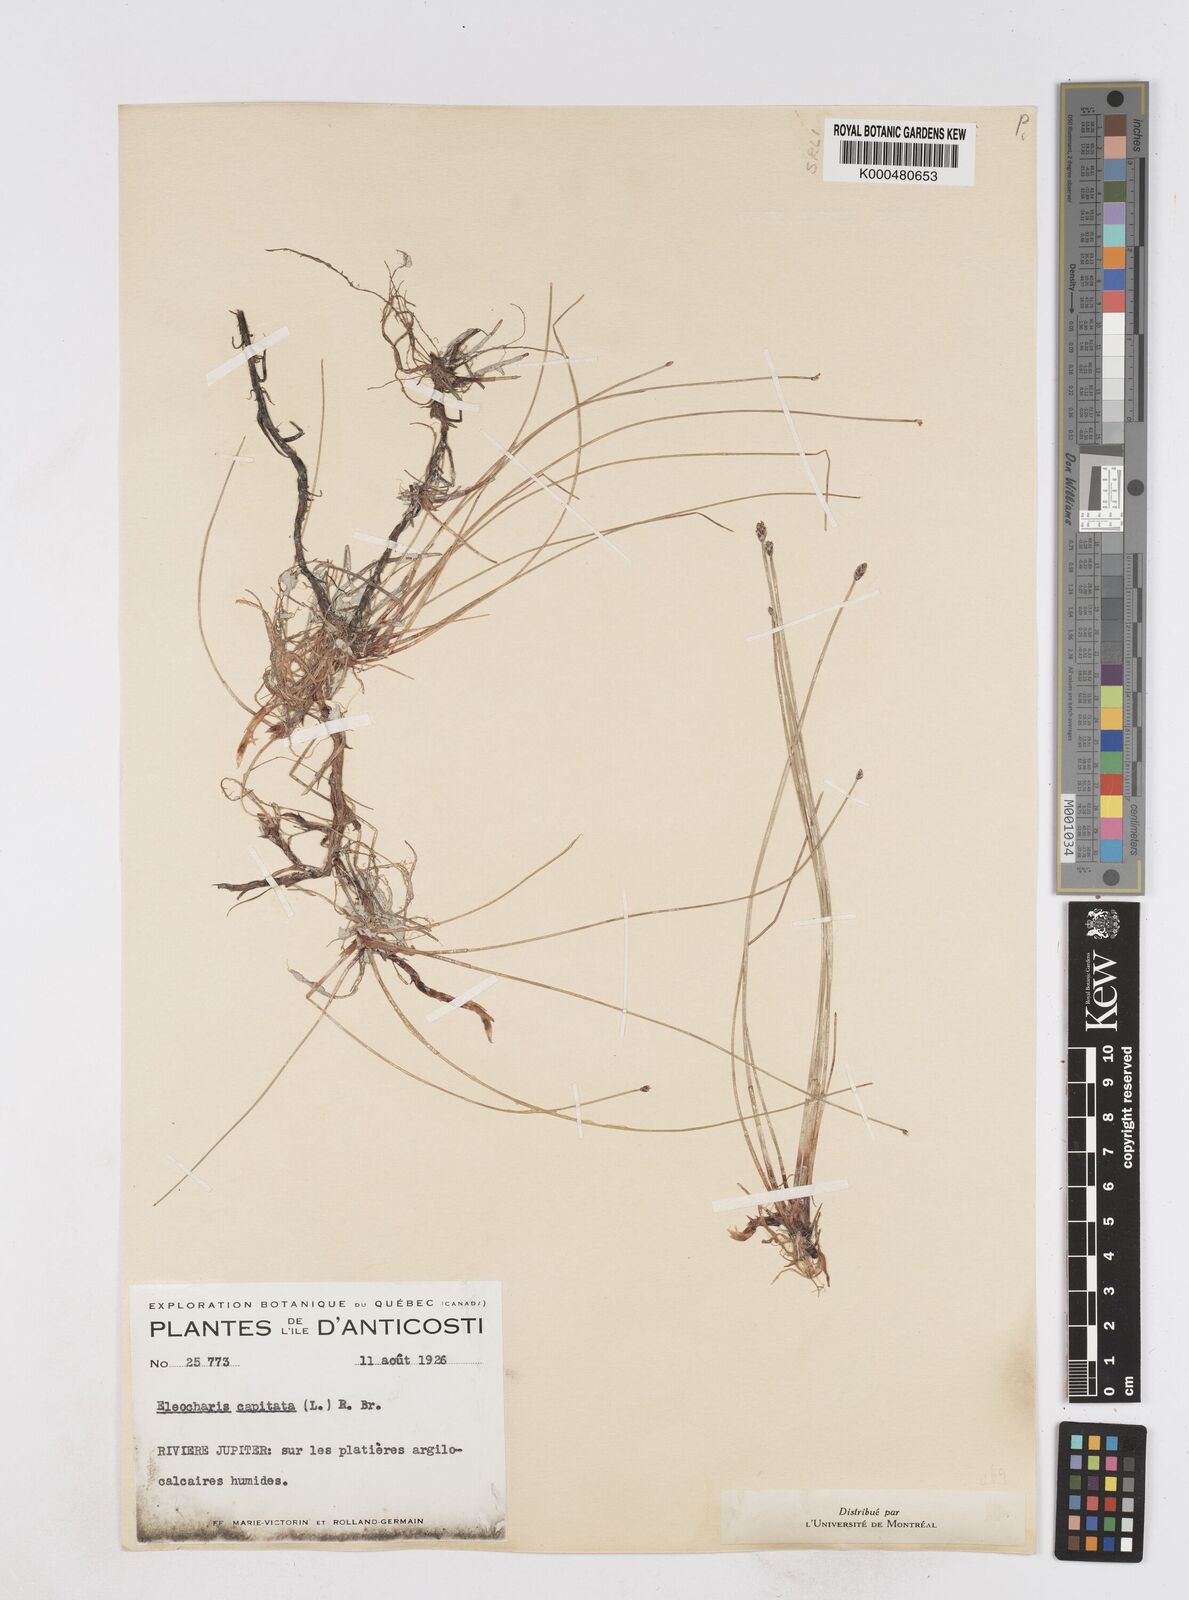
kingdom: Plantae
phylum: Tracheophyta
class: Liliopsida
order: Poales
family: Cyperaceae
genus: Eleocharis
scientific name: Eleocharis geniculata
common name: Canada spikesedge
